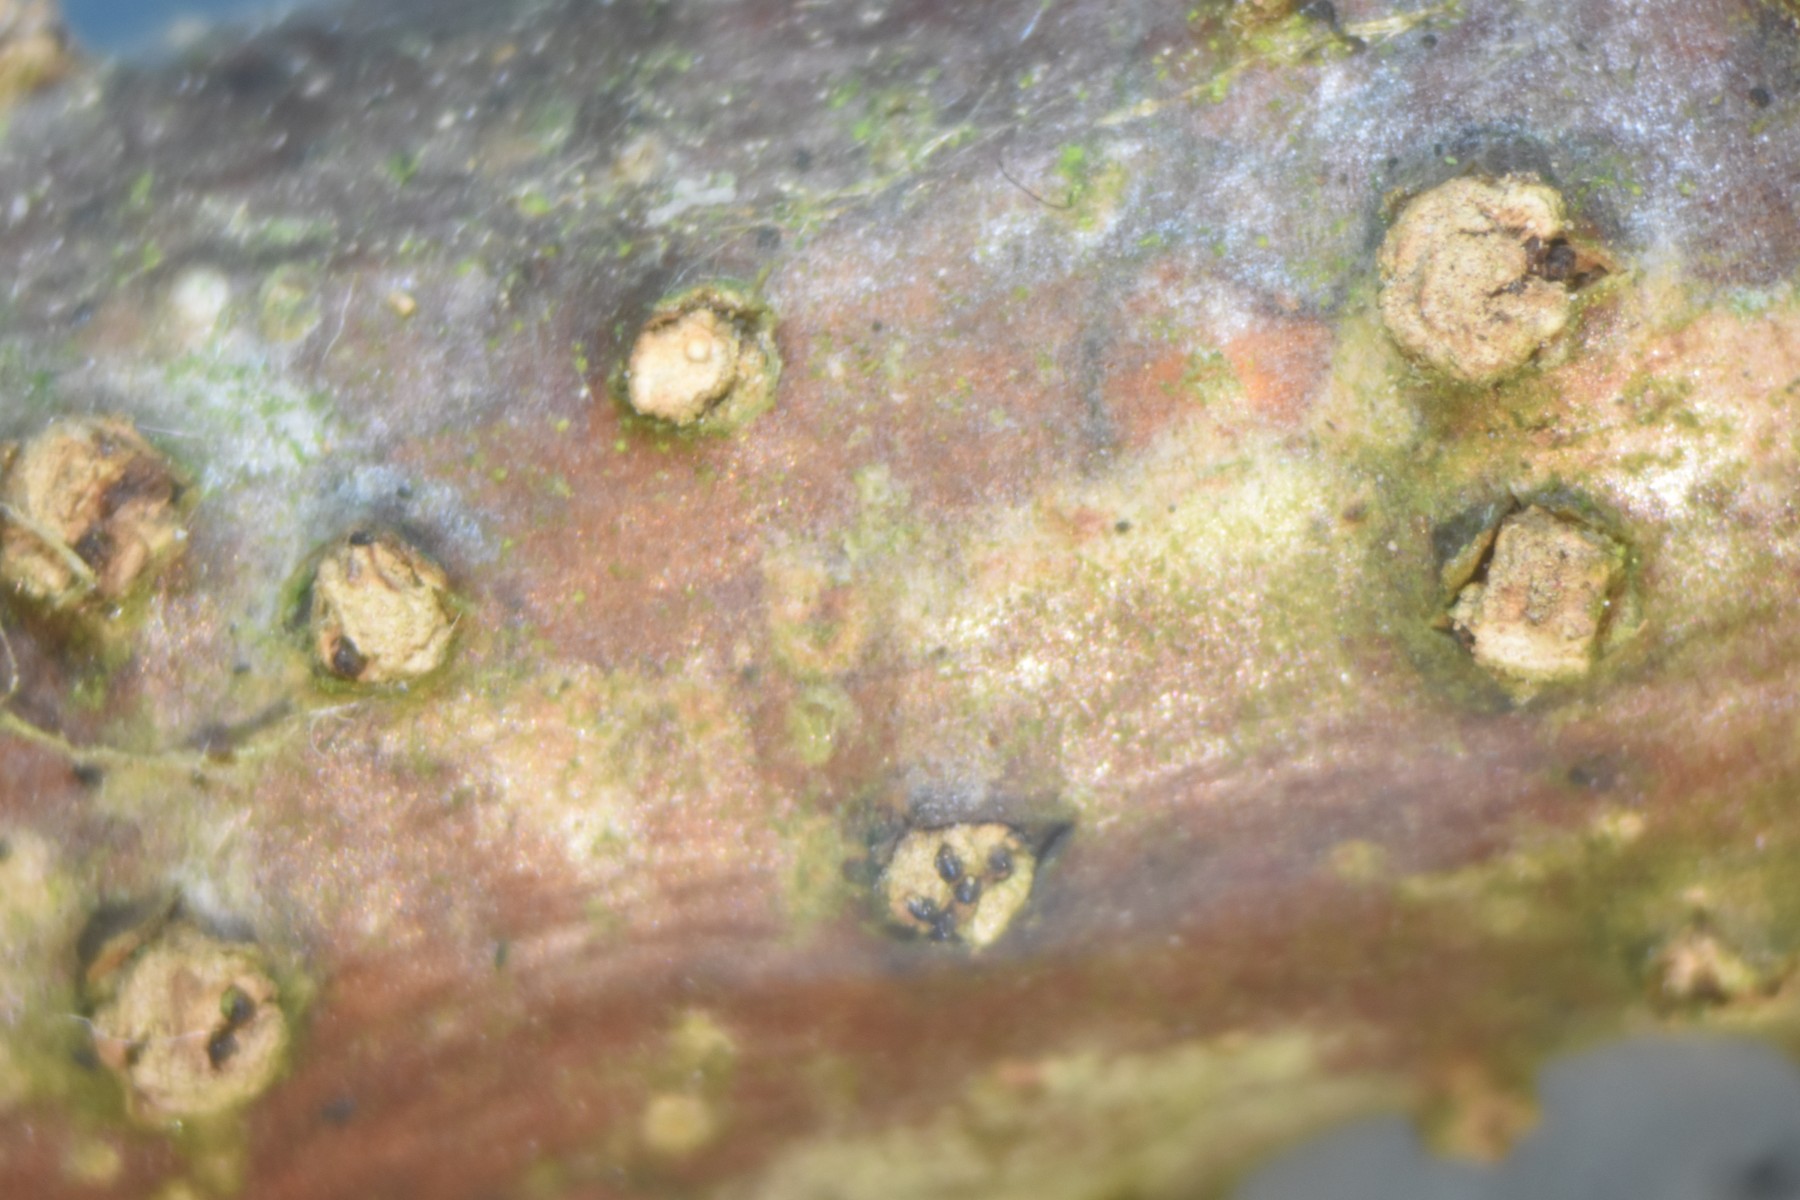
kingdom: Fungi
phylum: Ascomycota
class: Sordariomycetes
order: Diaporthales
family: Erythrogloeaceae
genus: Dendrostoma
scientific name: Dendrostoma leiphaemia
